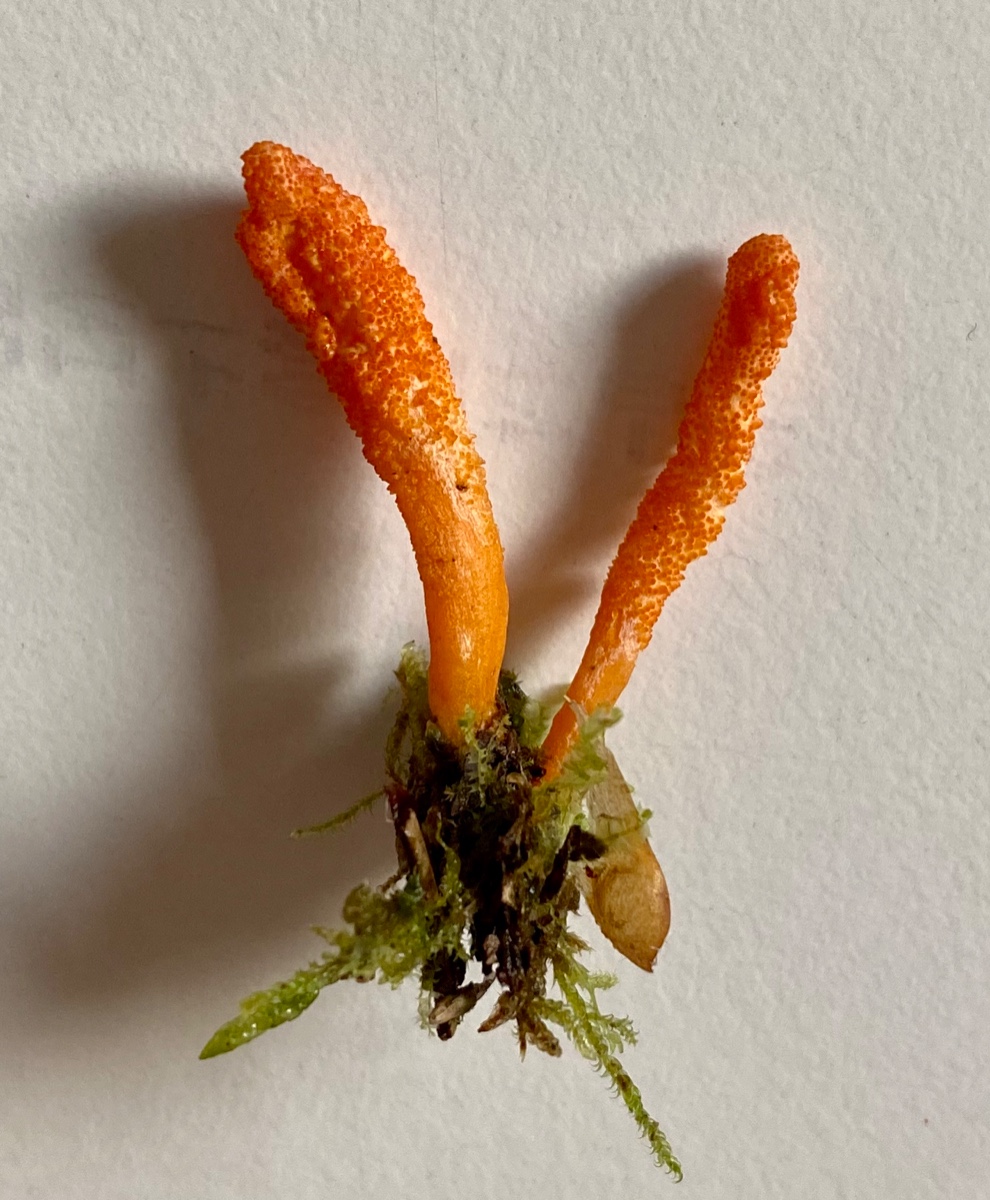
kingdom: Fungi
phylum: Ascomycota
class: Sordariomycetes
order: Hypocreales
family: Cordycipitaceae
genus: Cordyceps
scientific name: Cordyceps militaris
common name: puppe-snyltekølle
